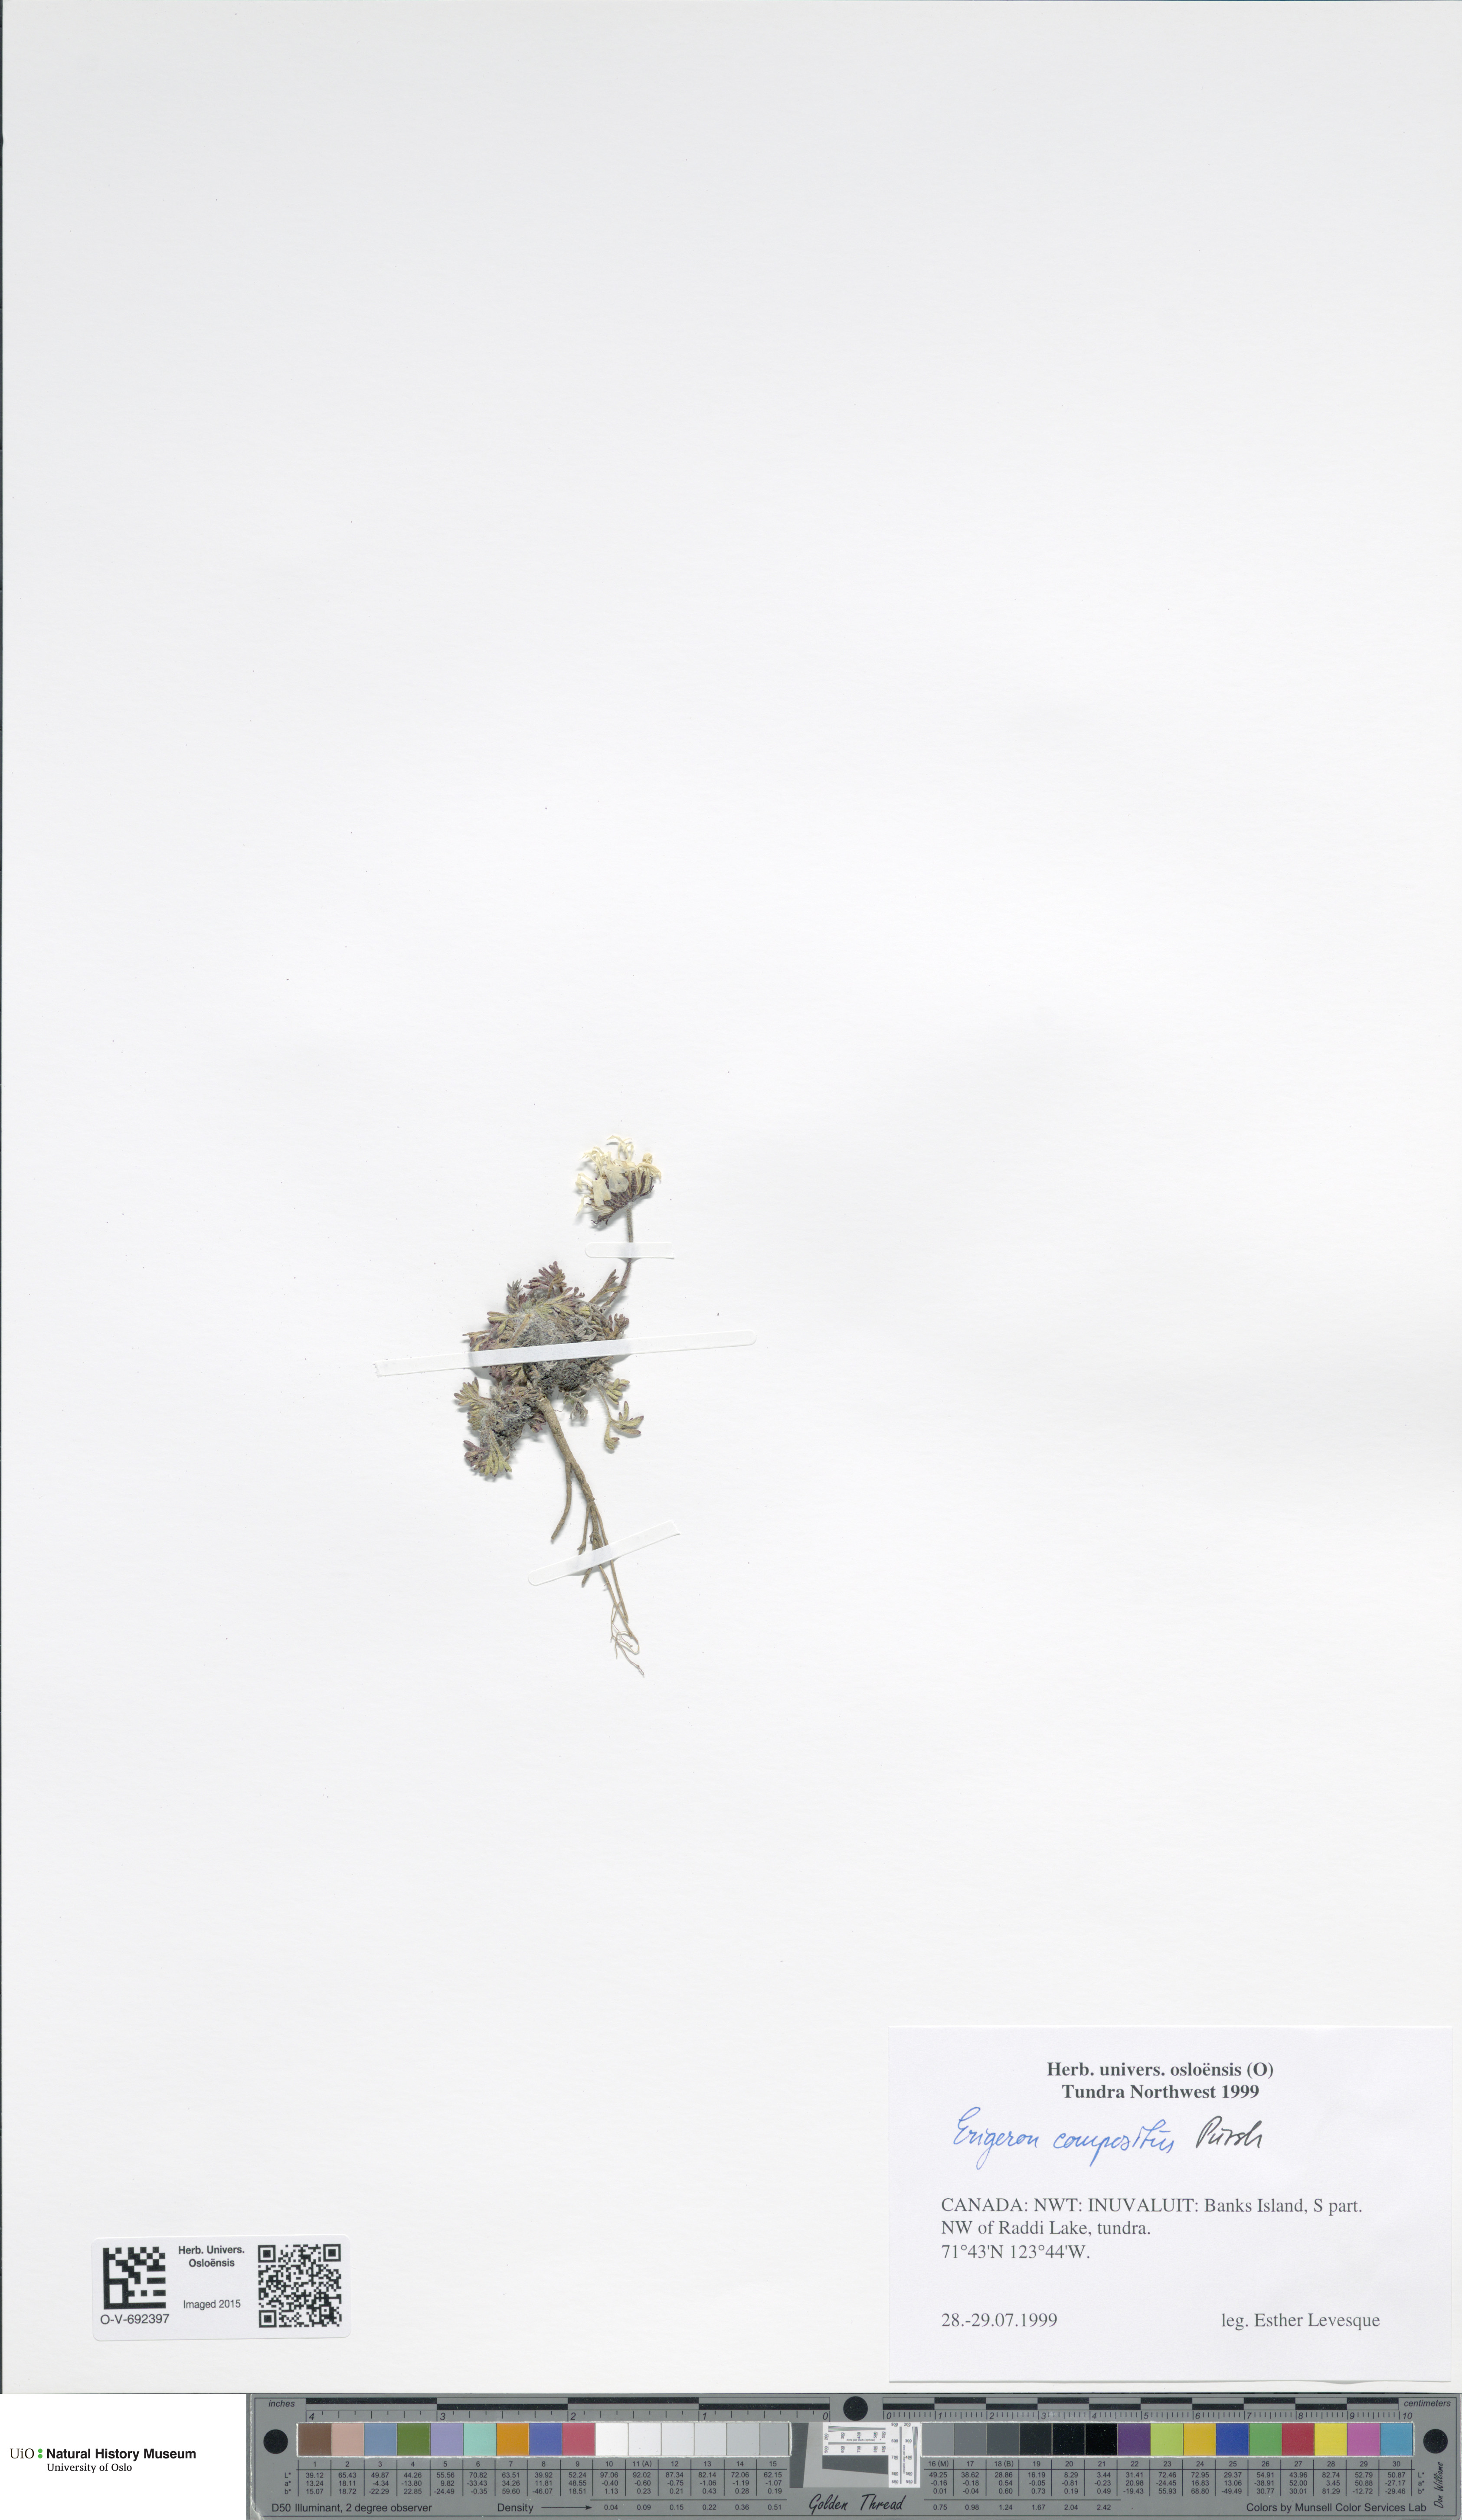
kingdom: Plantae
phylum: Tracheophyta
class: Magnoliopsida
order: Asterales
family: Asteraceae
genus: Erigeron
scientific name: Erigeron compositus
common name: Dwarf mountain fleabane
